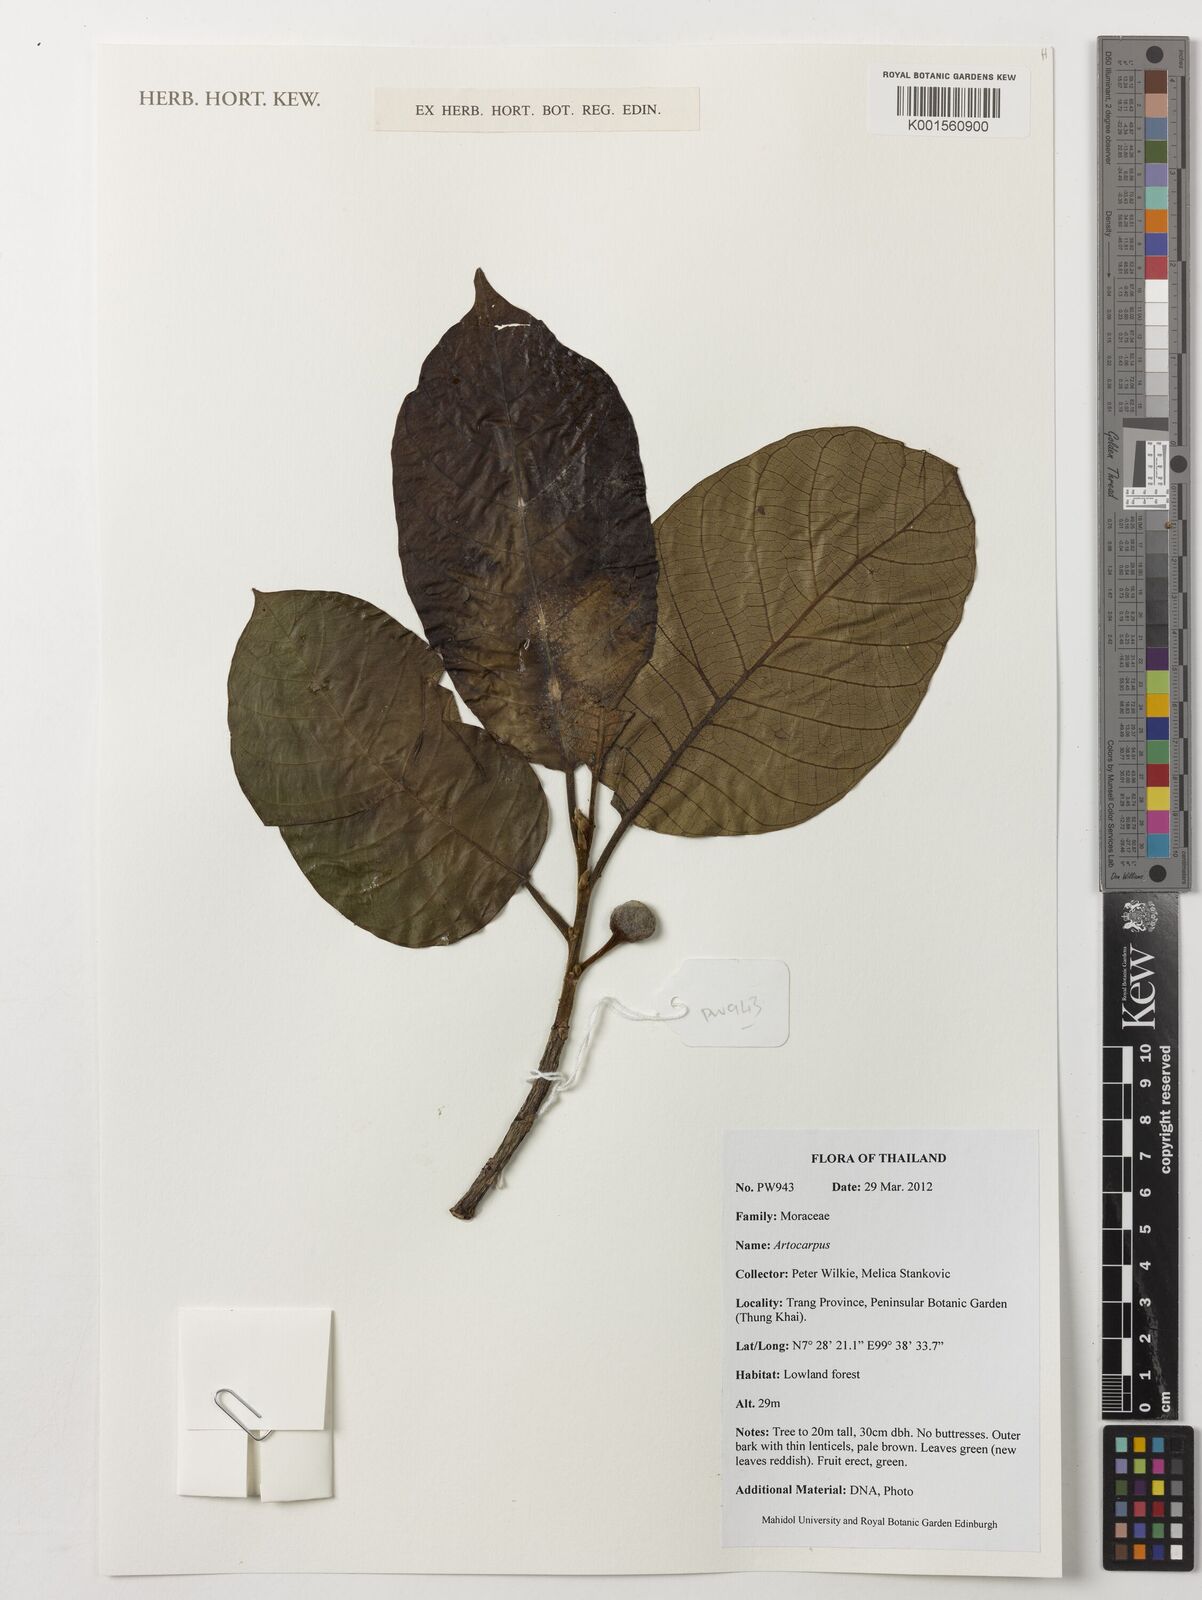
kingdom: Plantae
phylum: Tracheophyta
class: Magnoliopsida
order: Rosales
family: Moraceae
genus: Artocarpus
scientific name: Artocarpus
